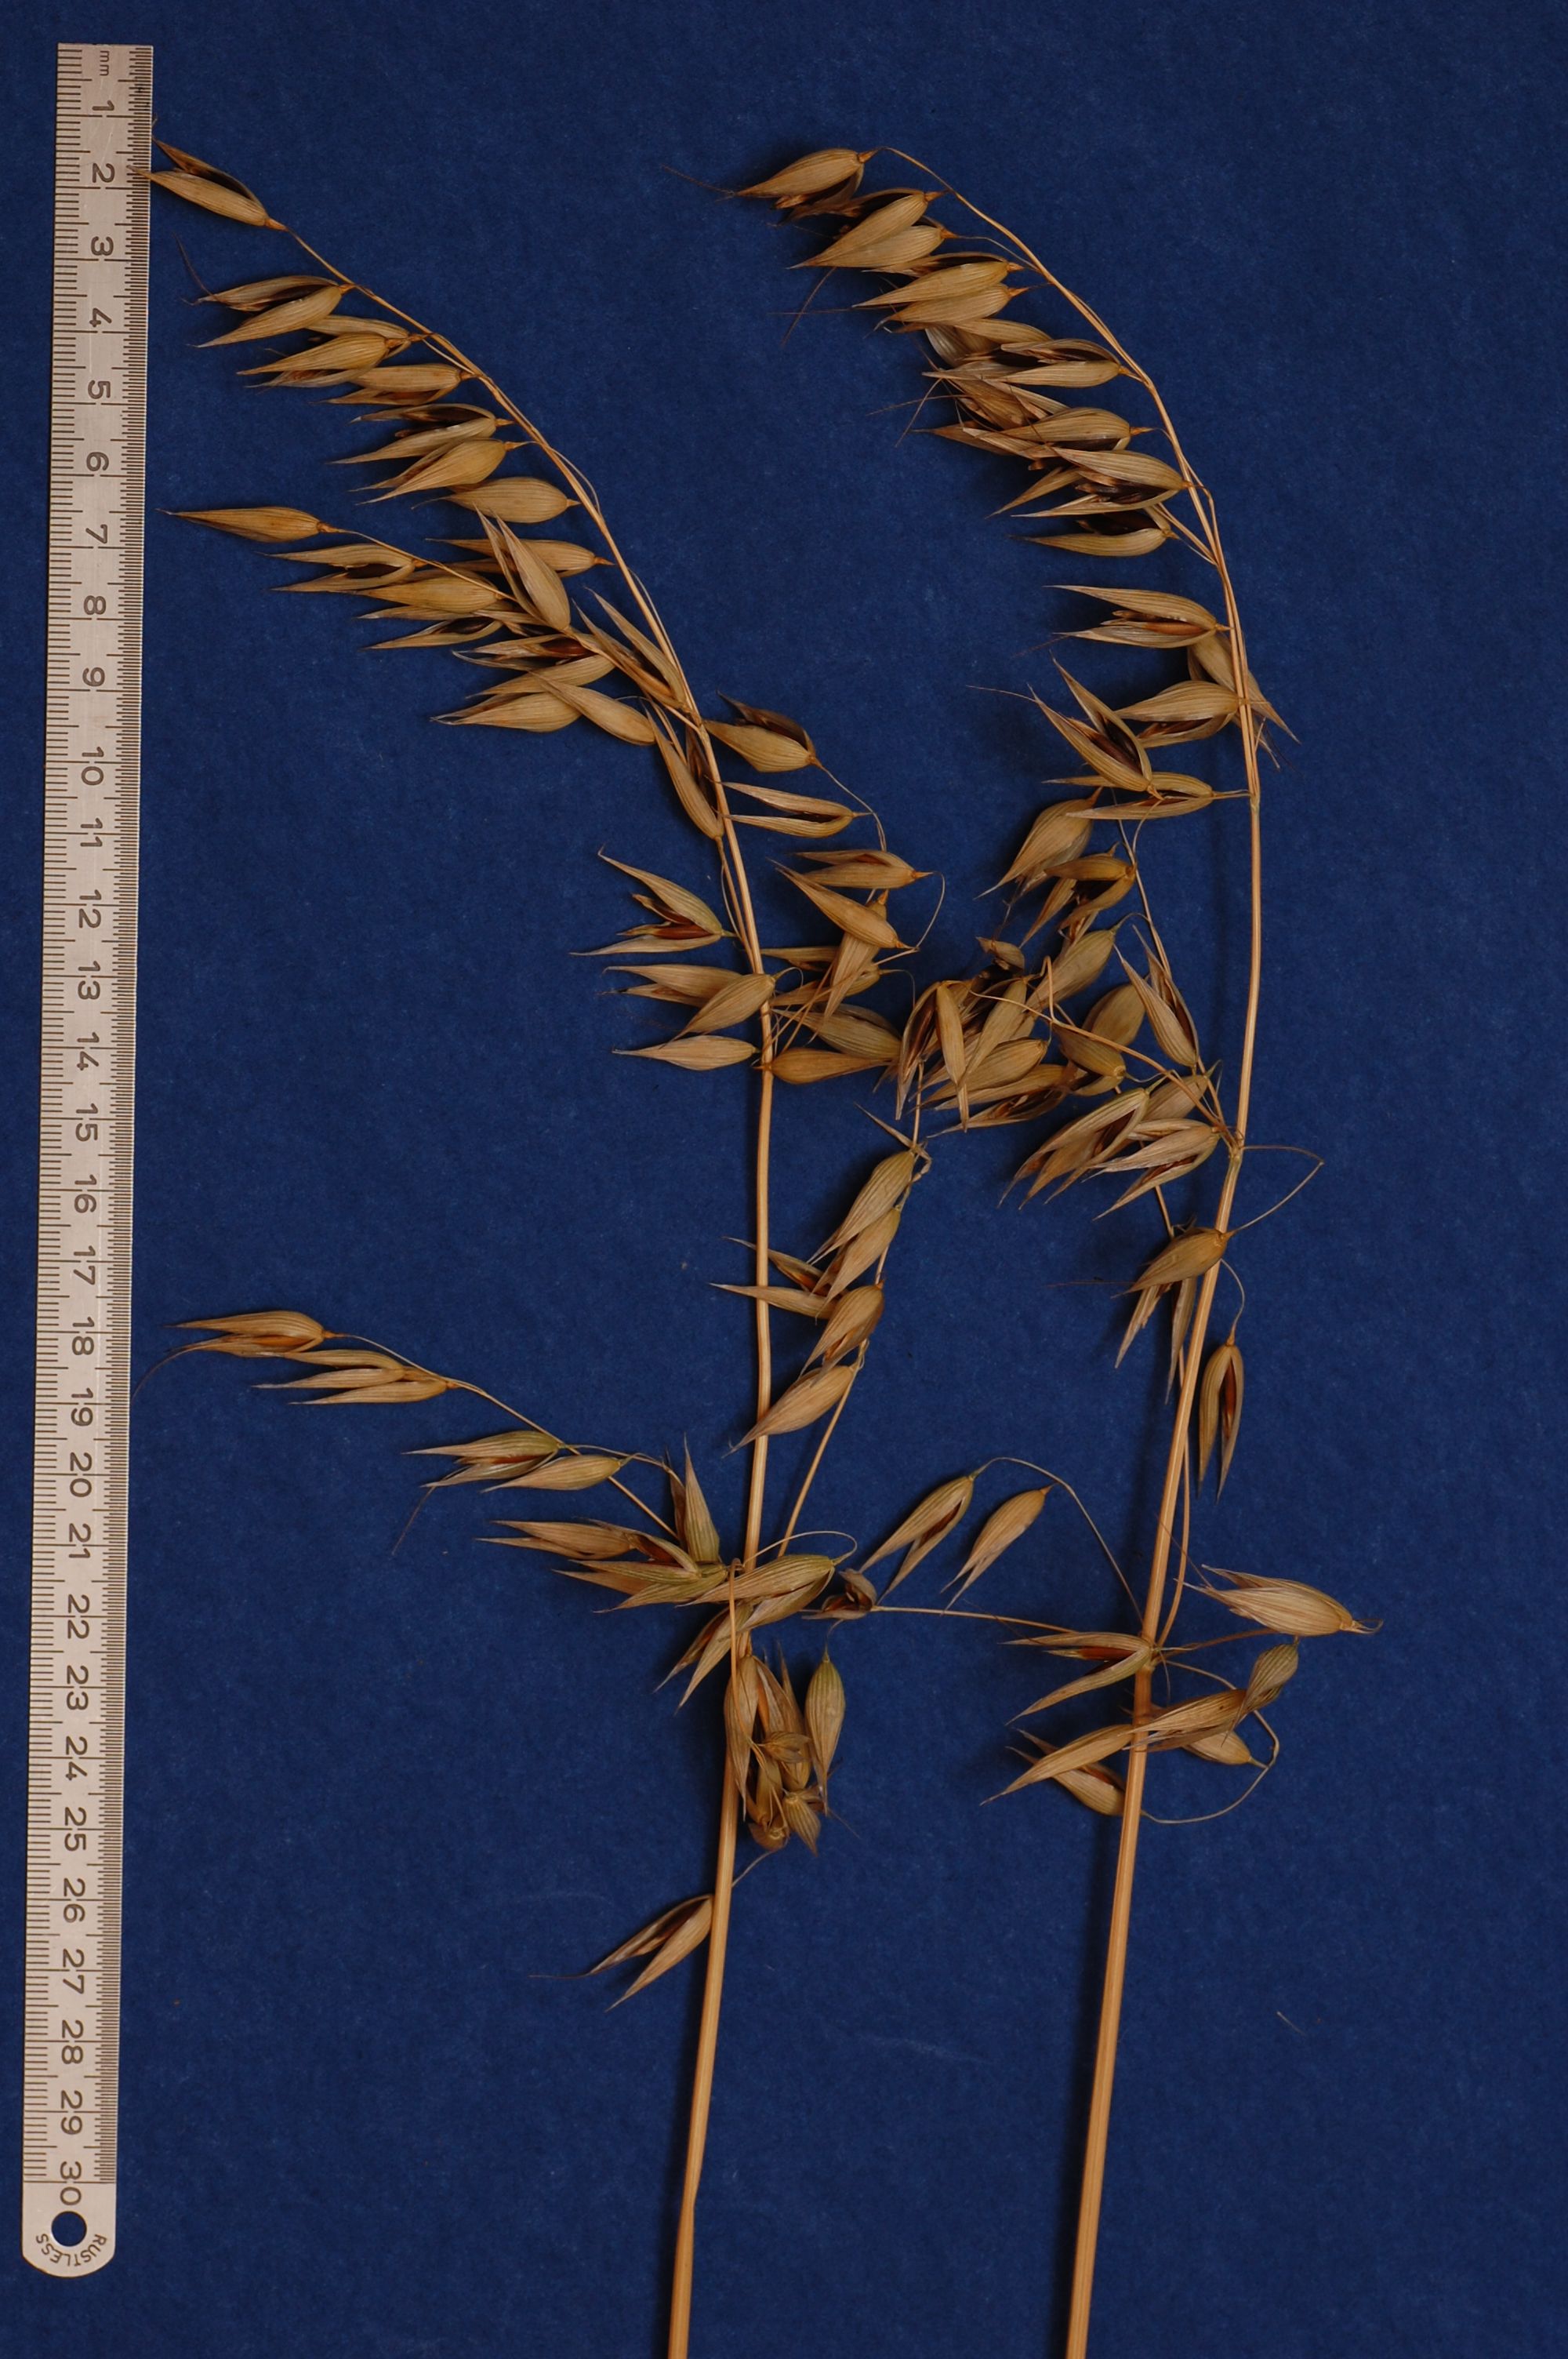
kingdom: Plantae
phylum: Tracheophyta
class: Liliopsida
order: Poales
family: Poaceae
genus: Avena
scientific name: Avena sativa
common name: Oat
